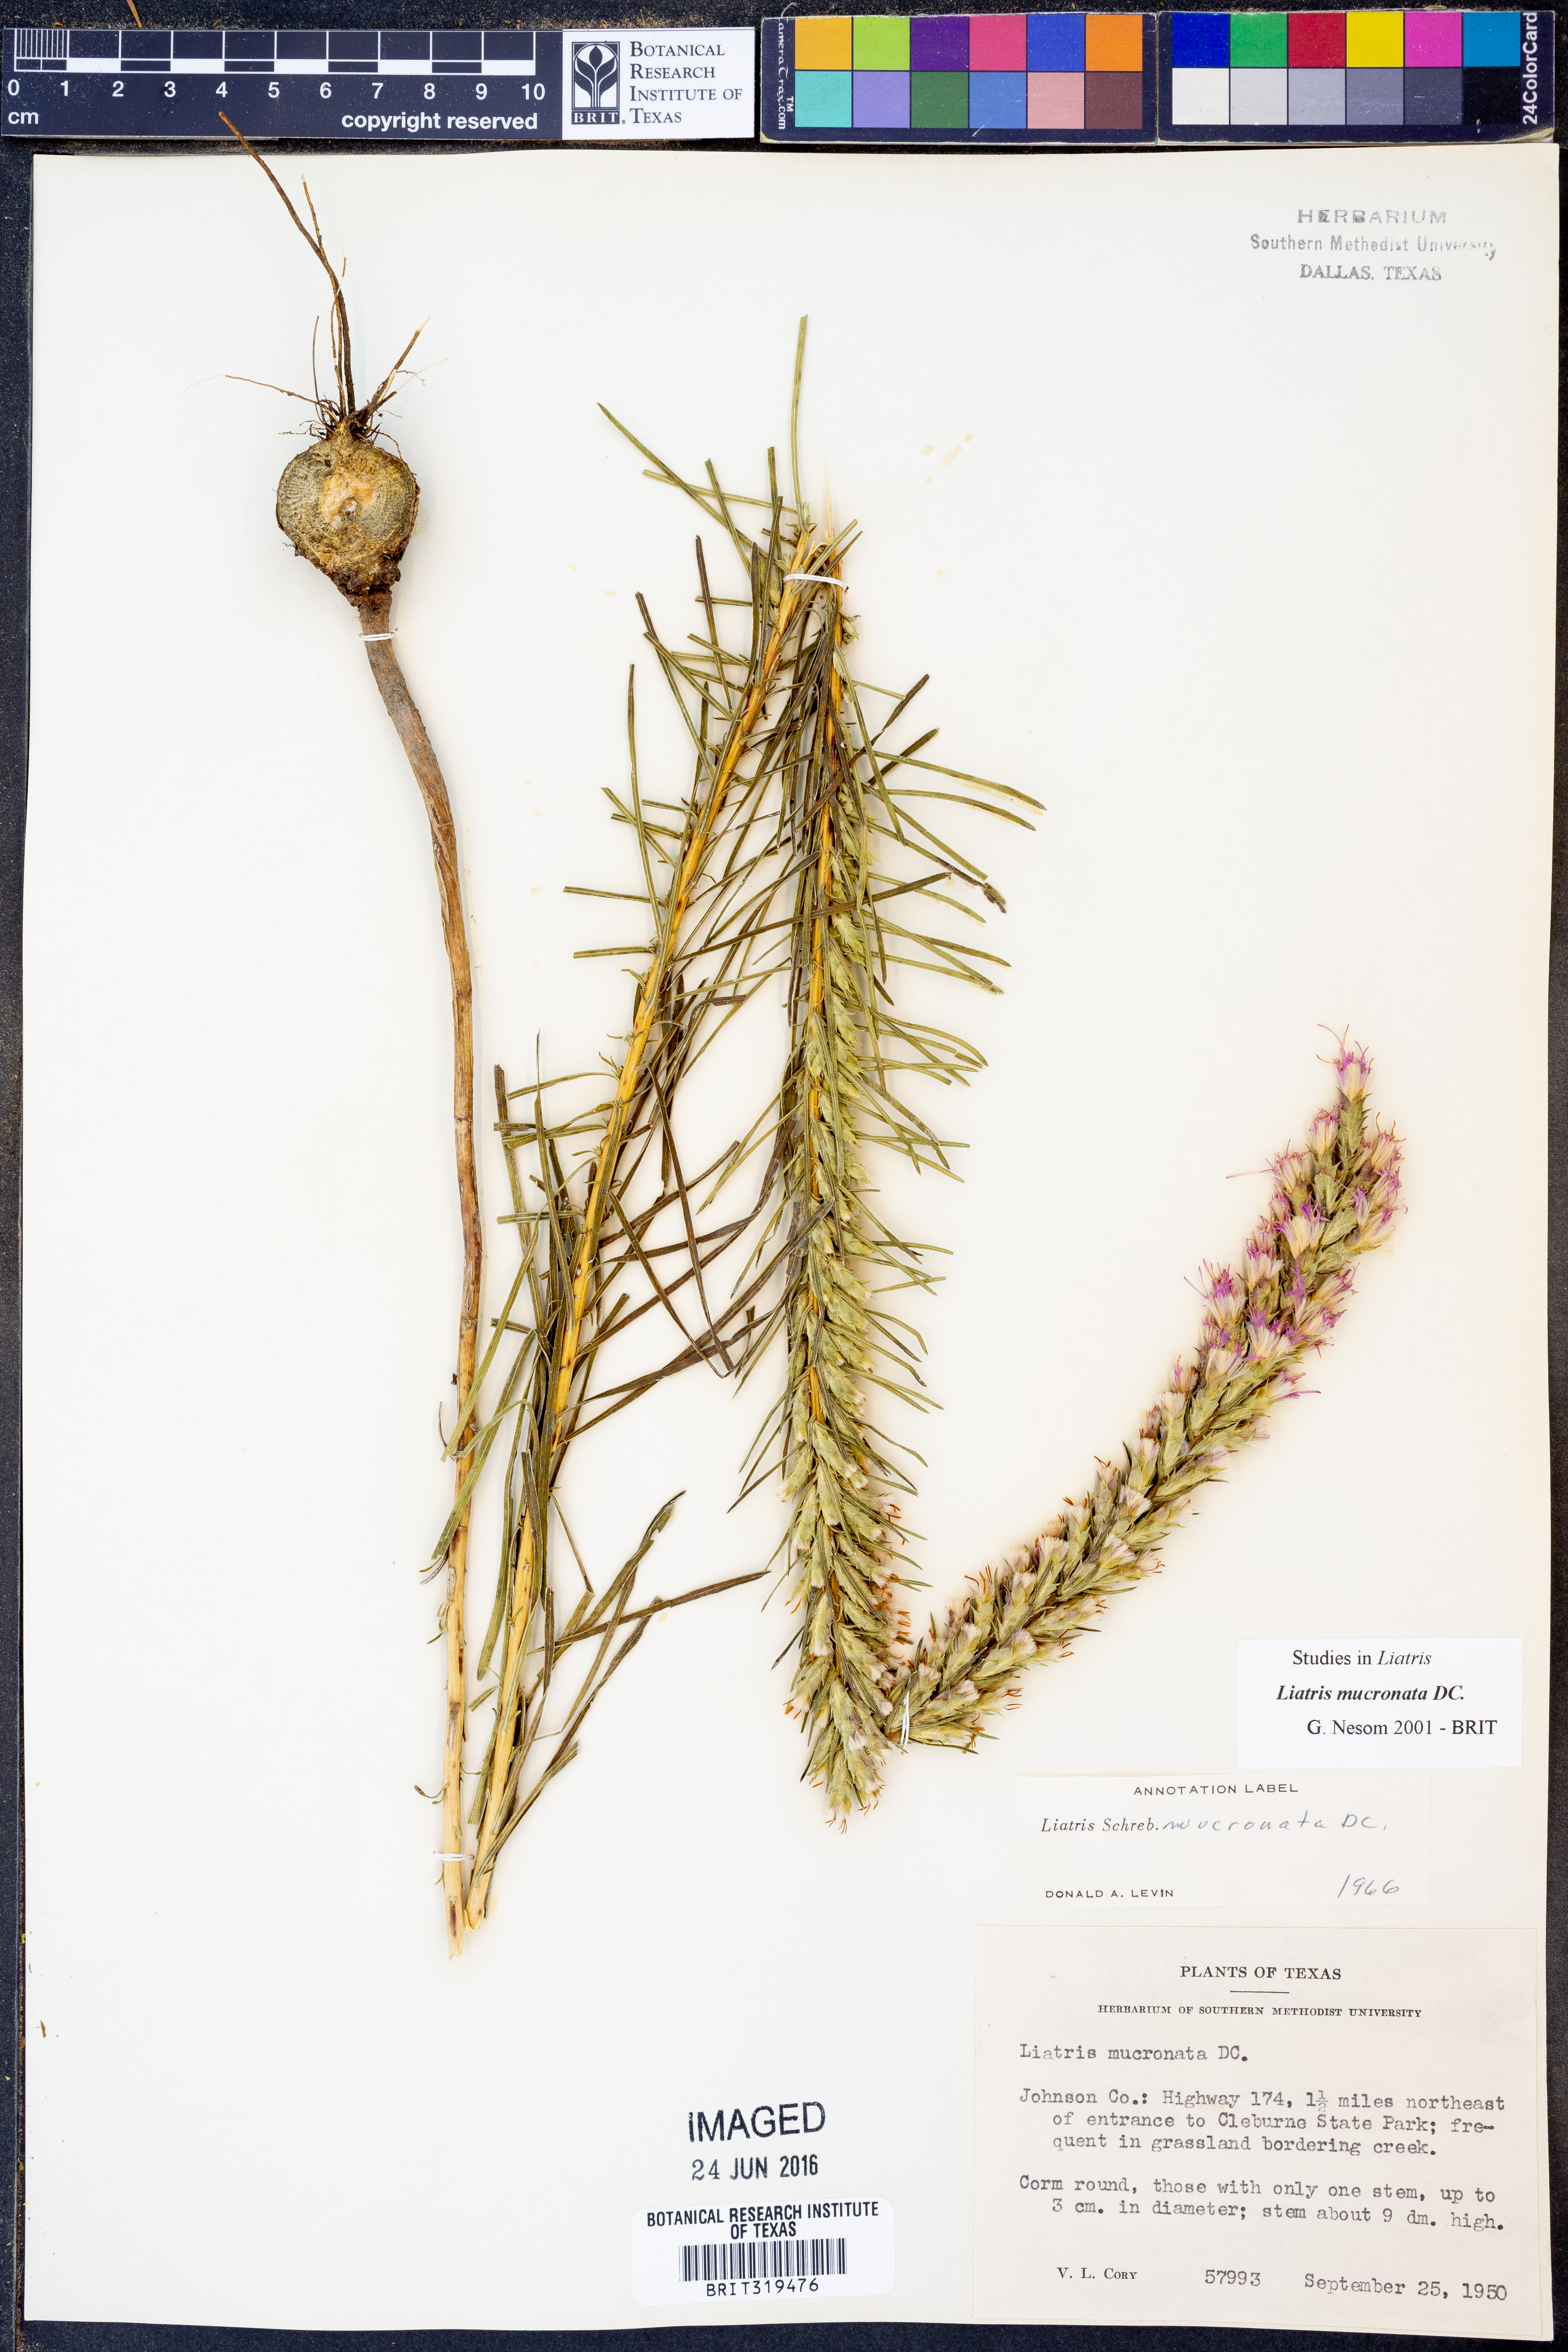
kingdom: Plantae
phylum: Tracheophyta
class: Magnoliopsida
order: Asterales
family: Asteraceae
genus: Liatris
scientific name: Liatris mucronata
